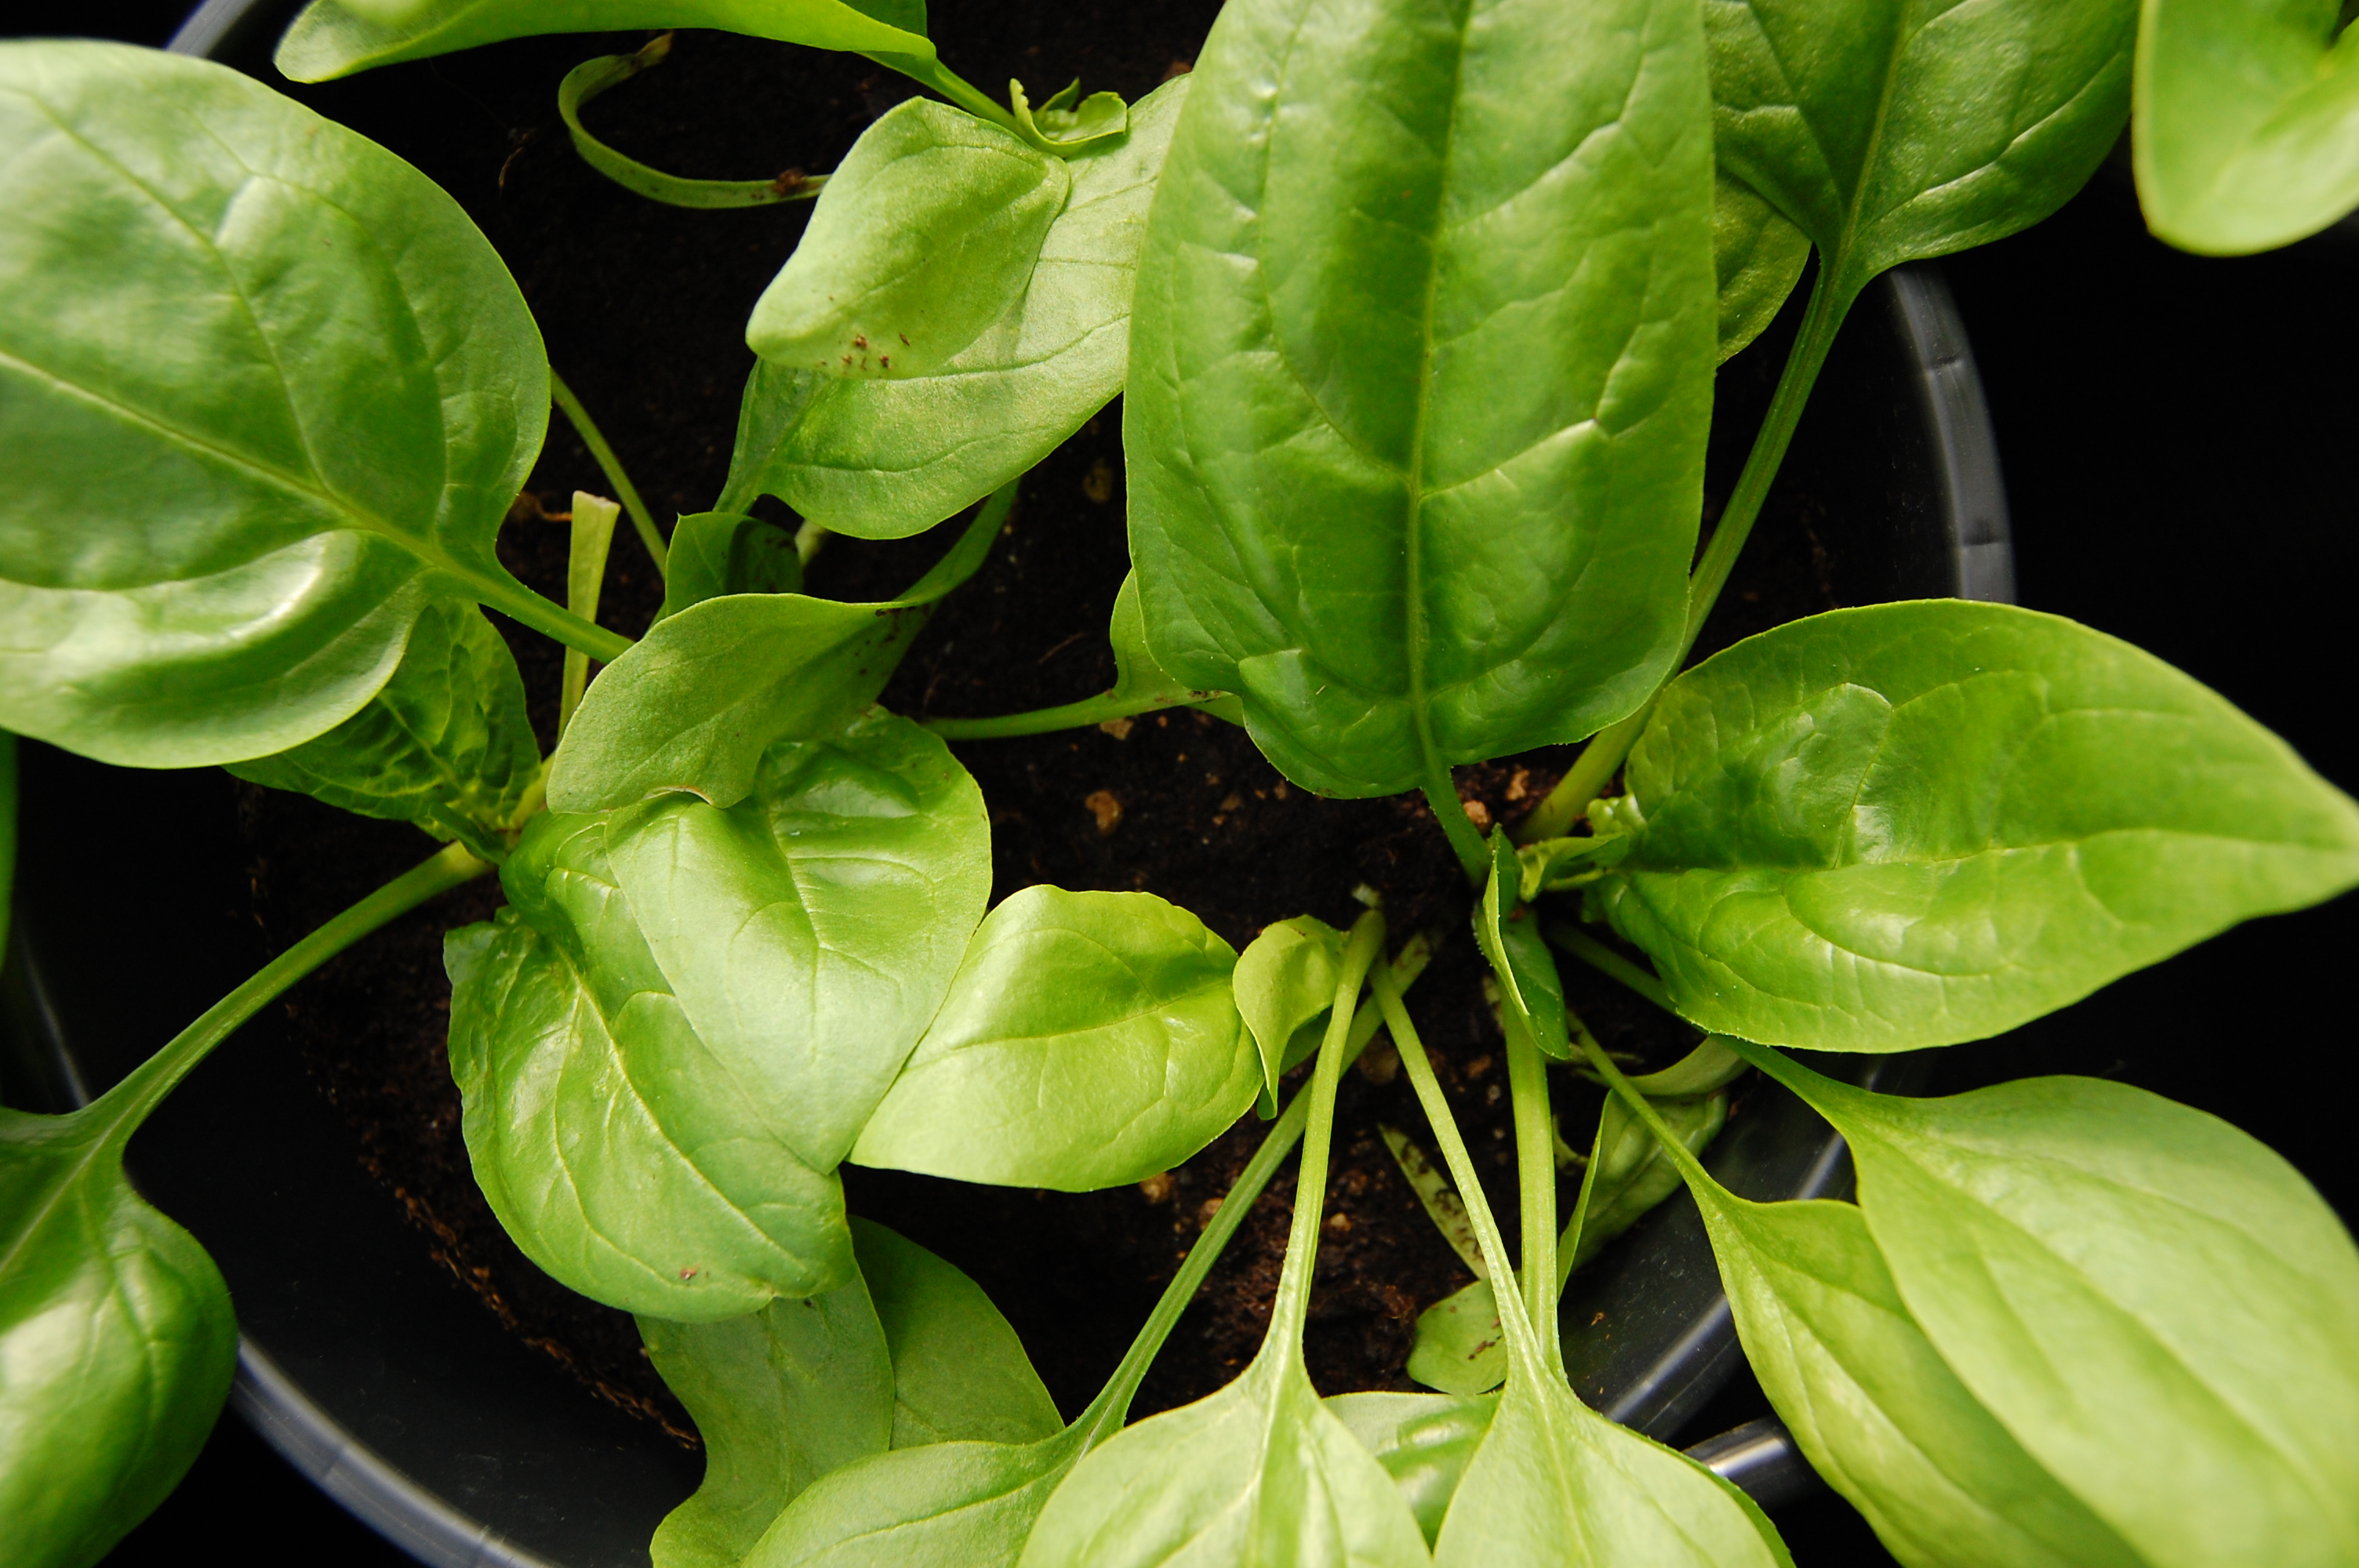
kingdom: Plantae
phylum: Tracheophyta
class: Magnoliopsida
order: Caryophyllales
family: Amaranthaceae
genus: Spinacia
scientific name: Spinacia oleracea
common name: Spinach
